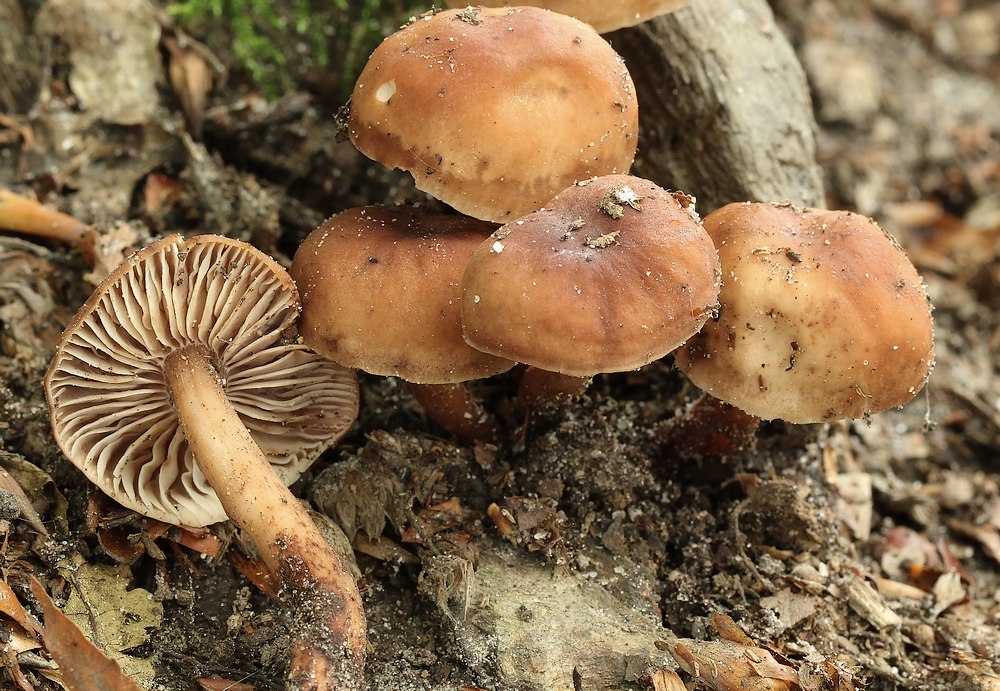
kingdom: Fungi
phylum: Basidiomycota
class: Agaricomycetes
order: Agaricales
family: Omphalotaceae
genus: Gymnopus
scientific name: Gymnopus fusipes
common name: tenstokket fladhat
